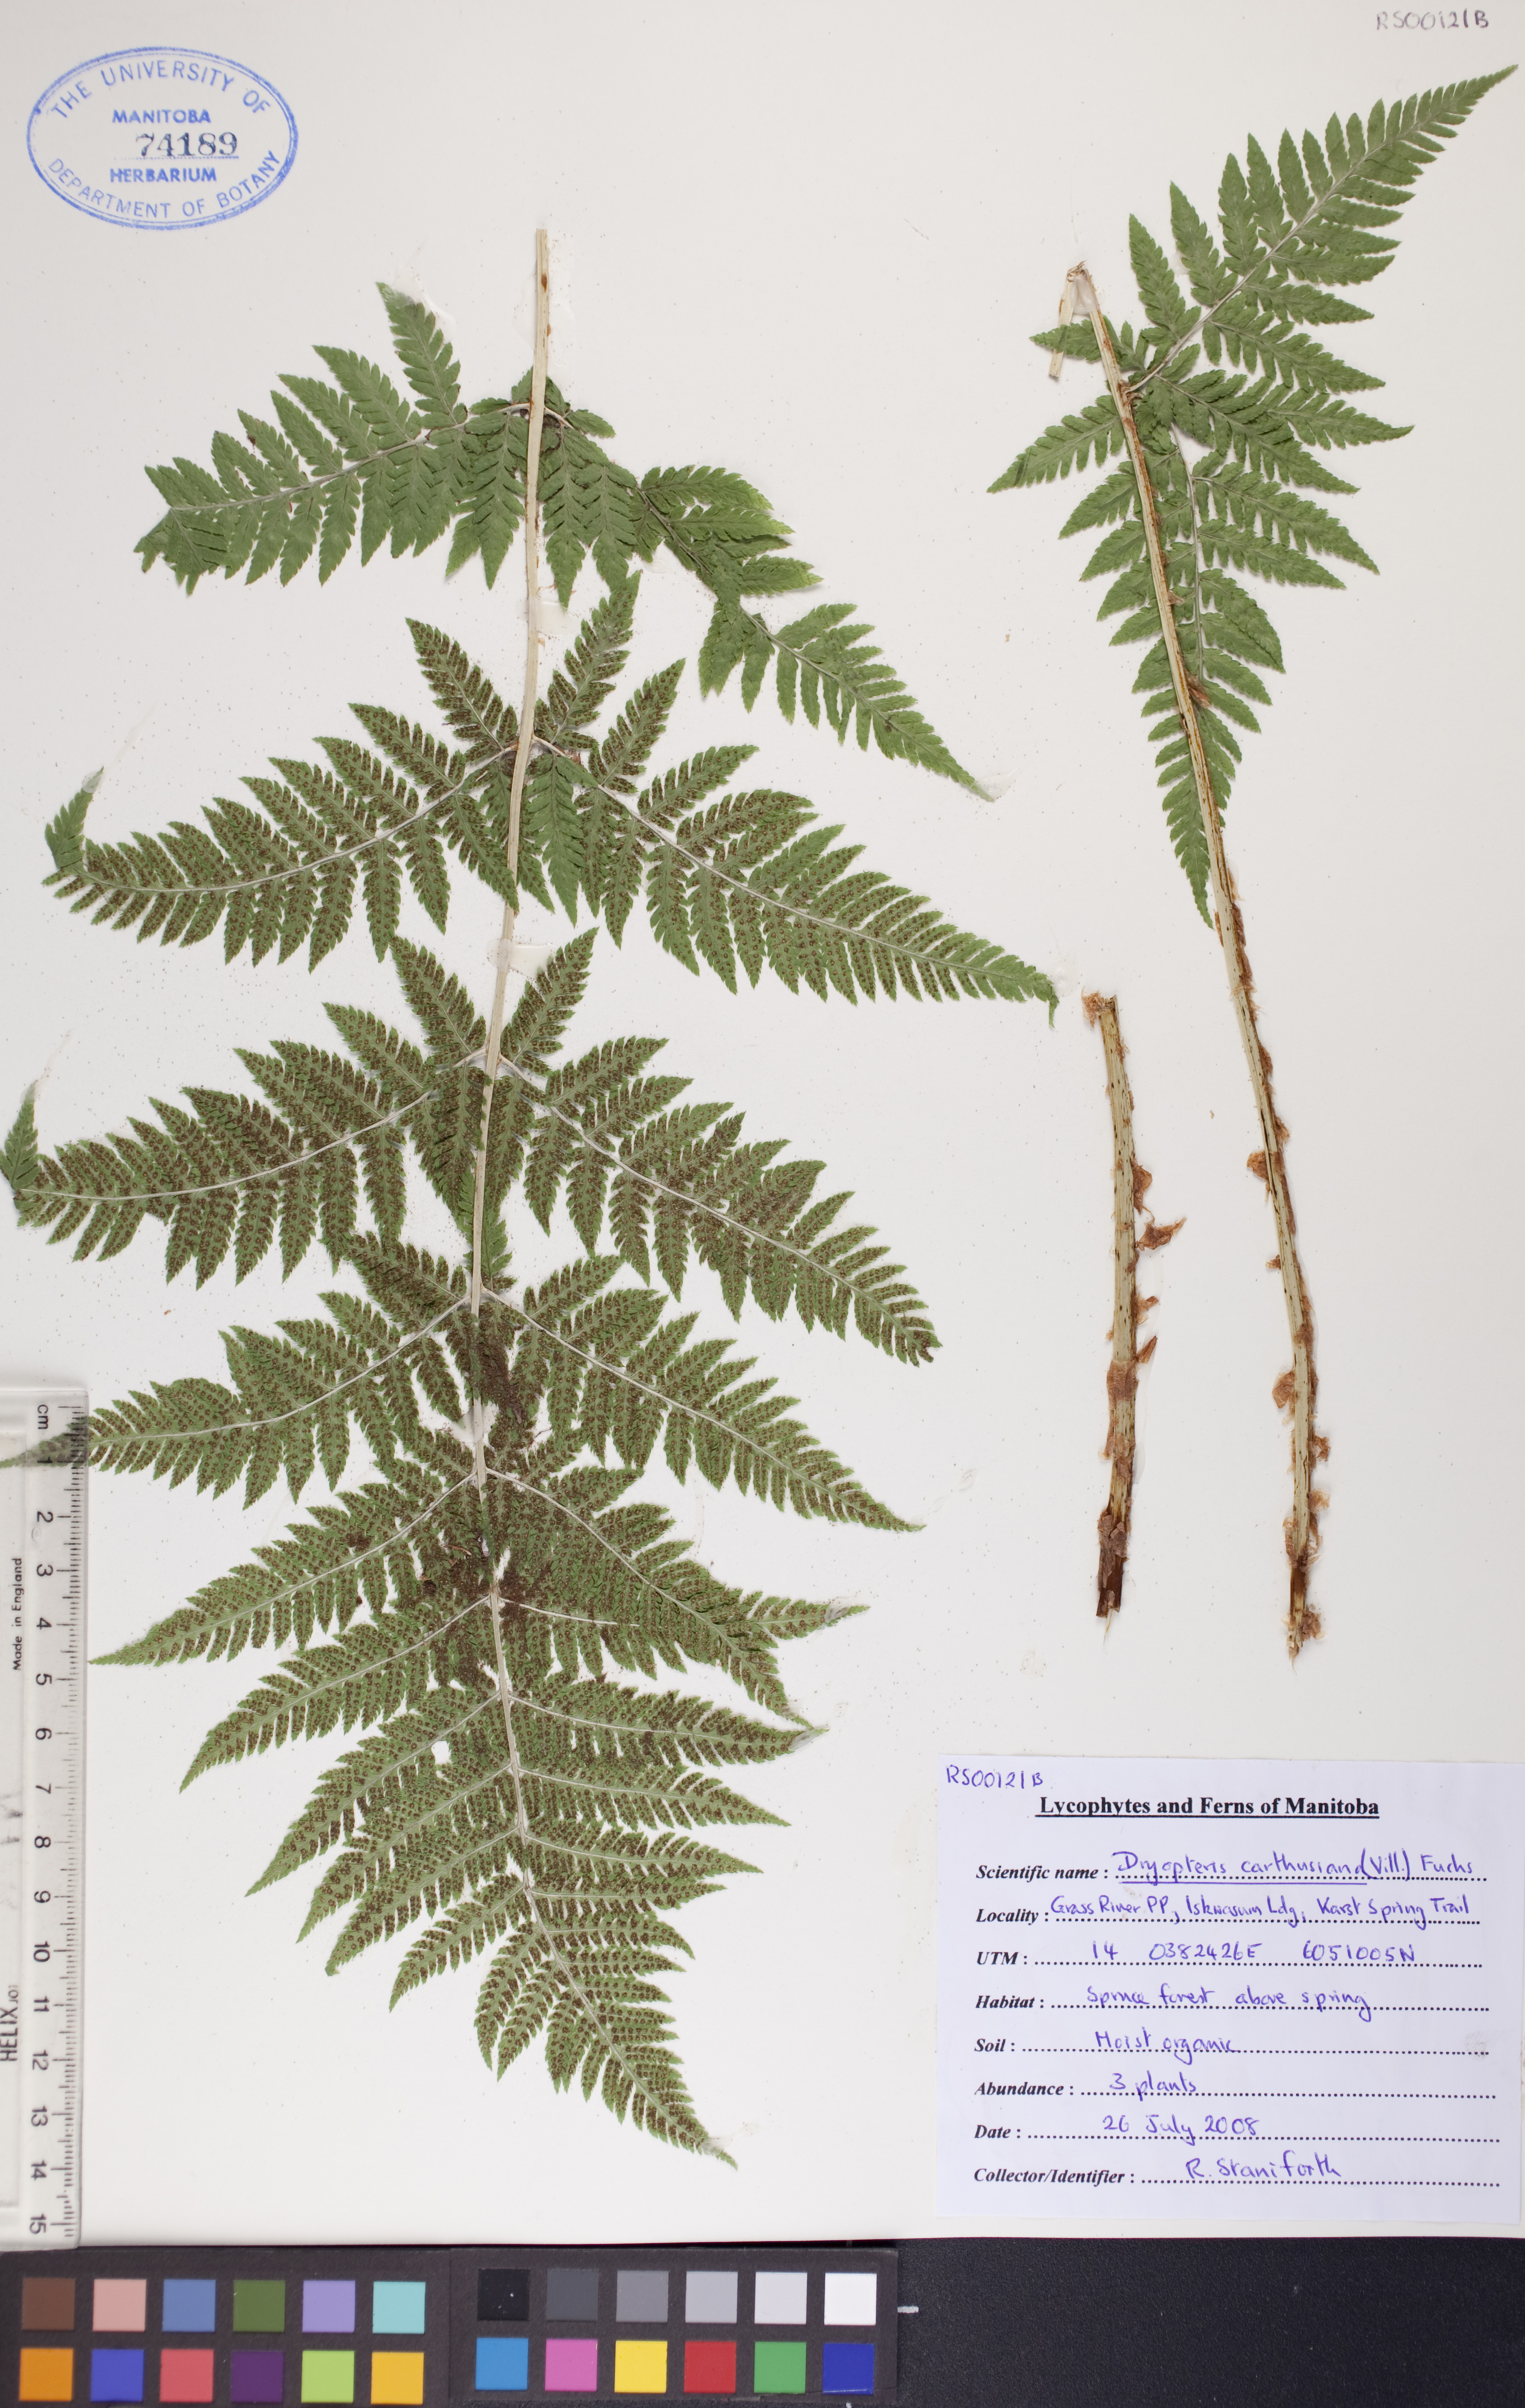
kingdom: Plantae
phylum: Tracheophyta
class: Polypodiopsida
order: Polypodiales
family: Dryopteridaceae
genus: Dryopteris
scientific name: Dryopteris carthusiana
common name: Narrow buckler-fern
